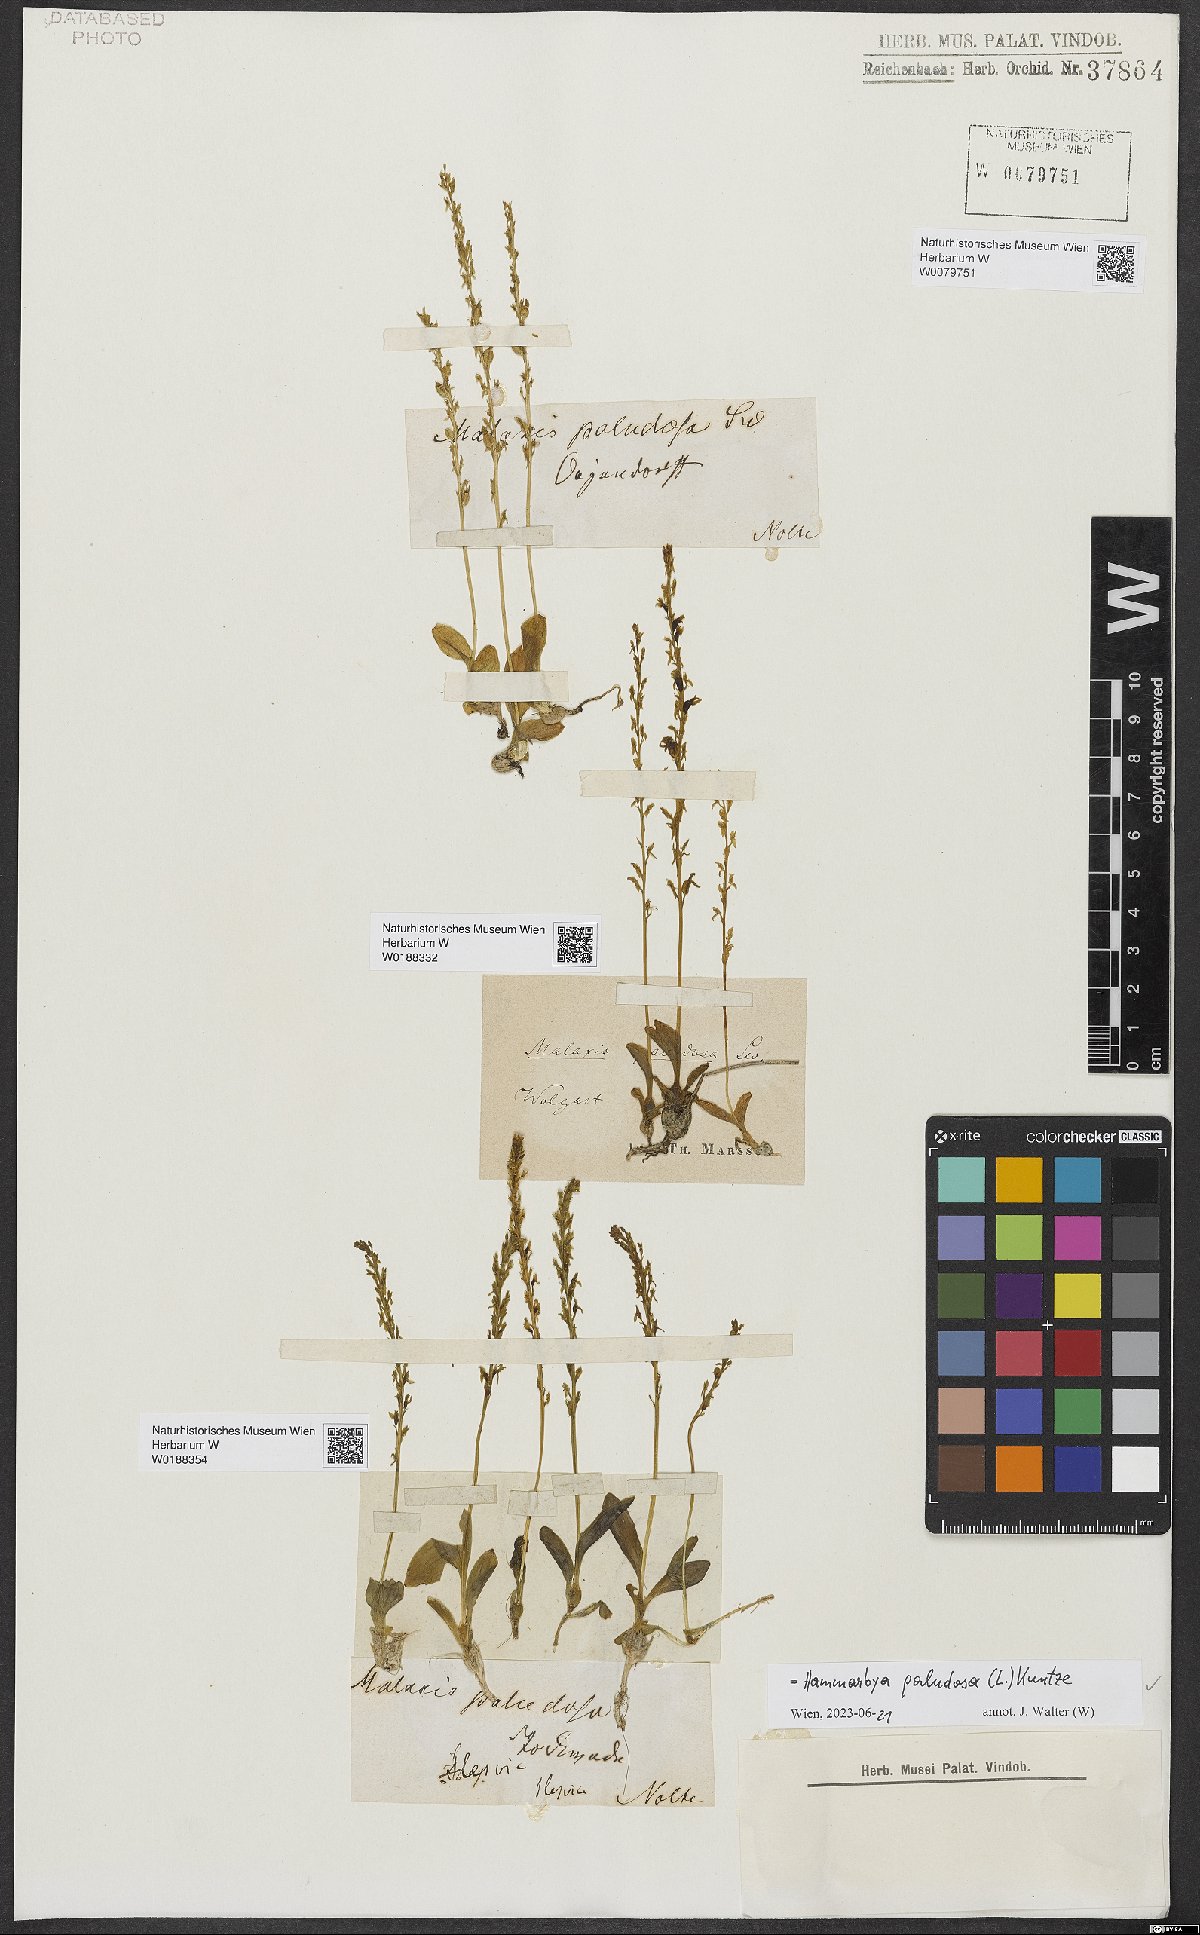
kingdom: Plantae
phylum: Tracheophyta
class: Liliopsida
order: Asparagales
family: Orchidaceae
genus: Hammarbya
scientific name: Hammarbya paludosa
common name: Bog orchid
